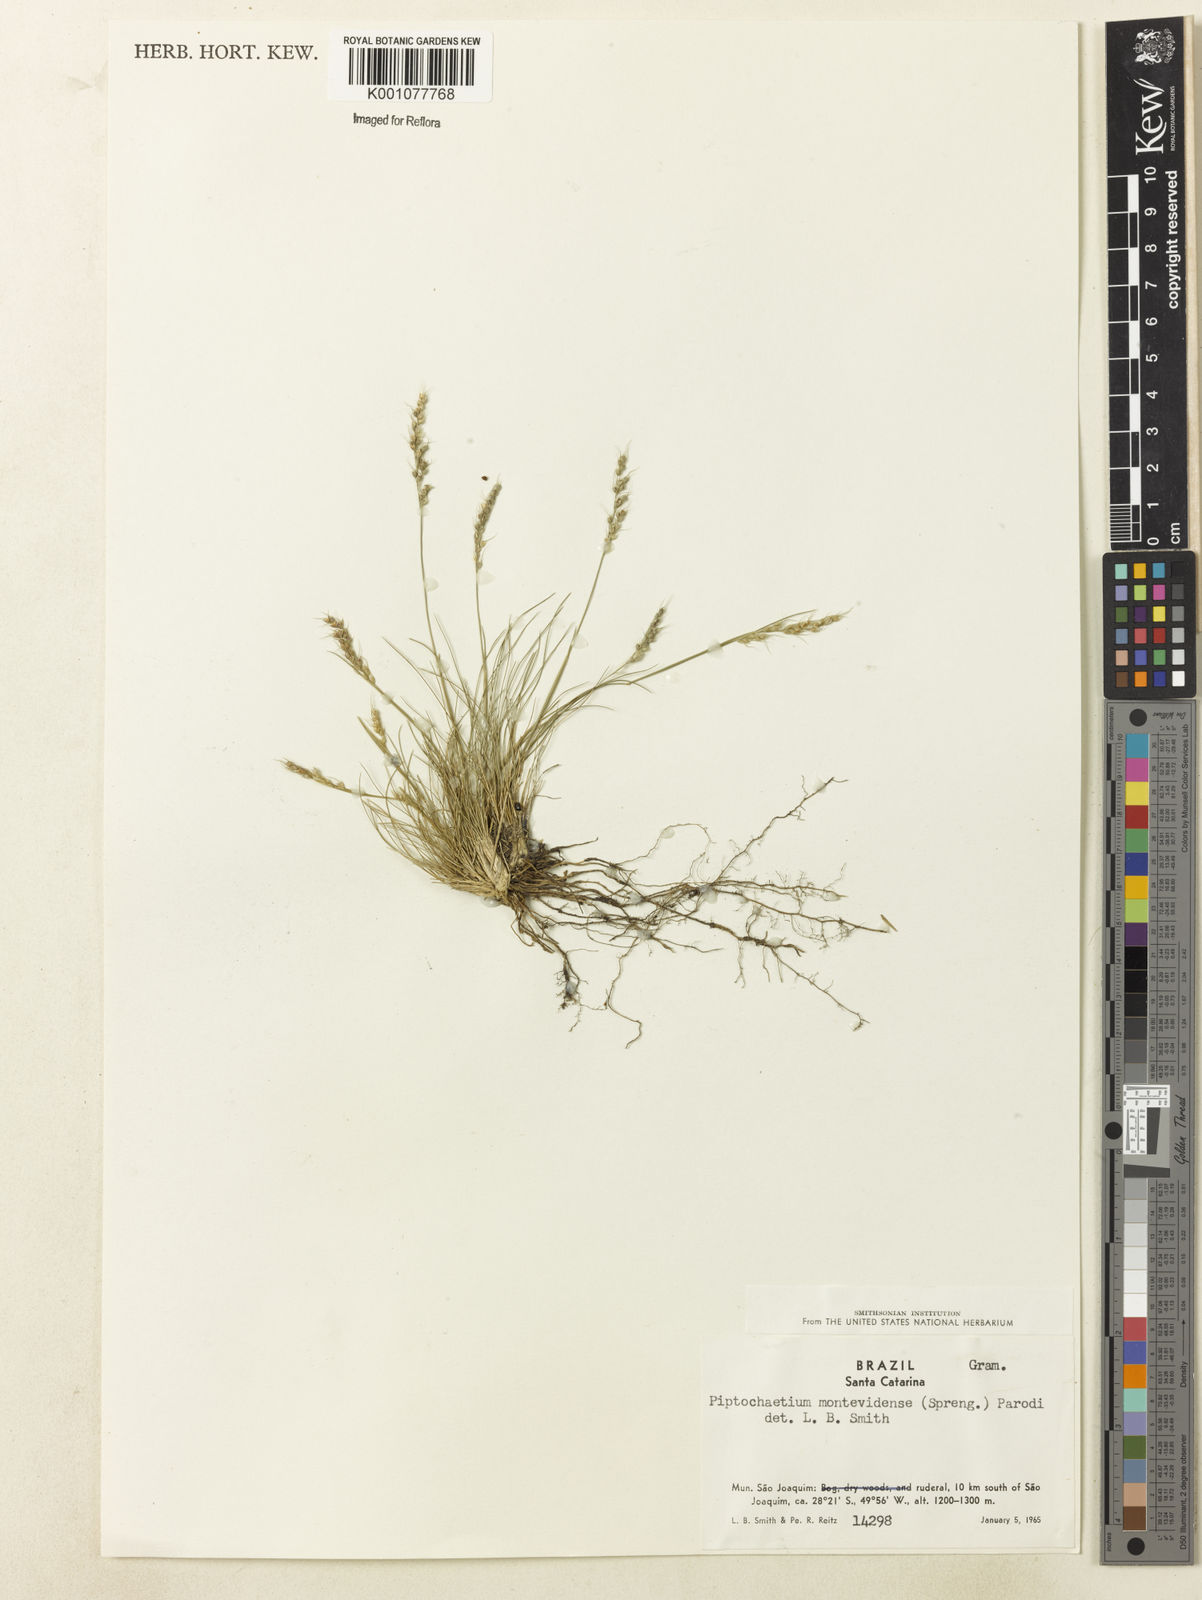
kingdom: Plantae
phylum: Tracheophyta
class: Liliopsida
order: Poales
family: Poaceae
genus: Piptochaetium
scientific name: Piptochaetium montevidense
